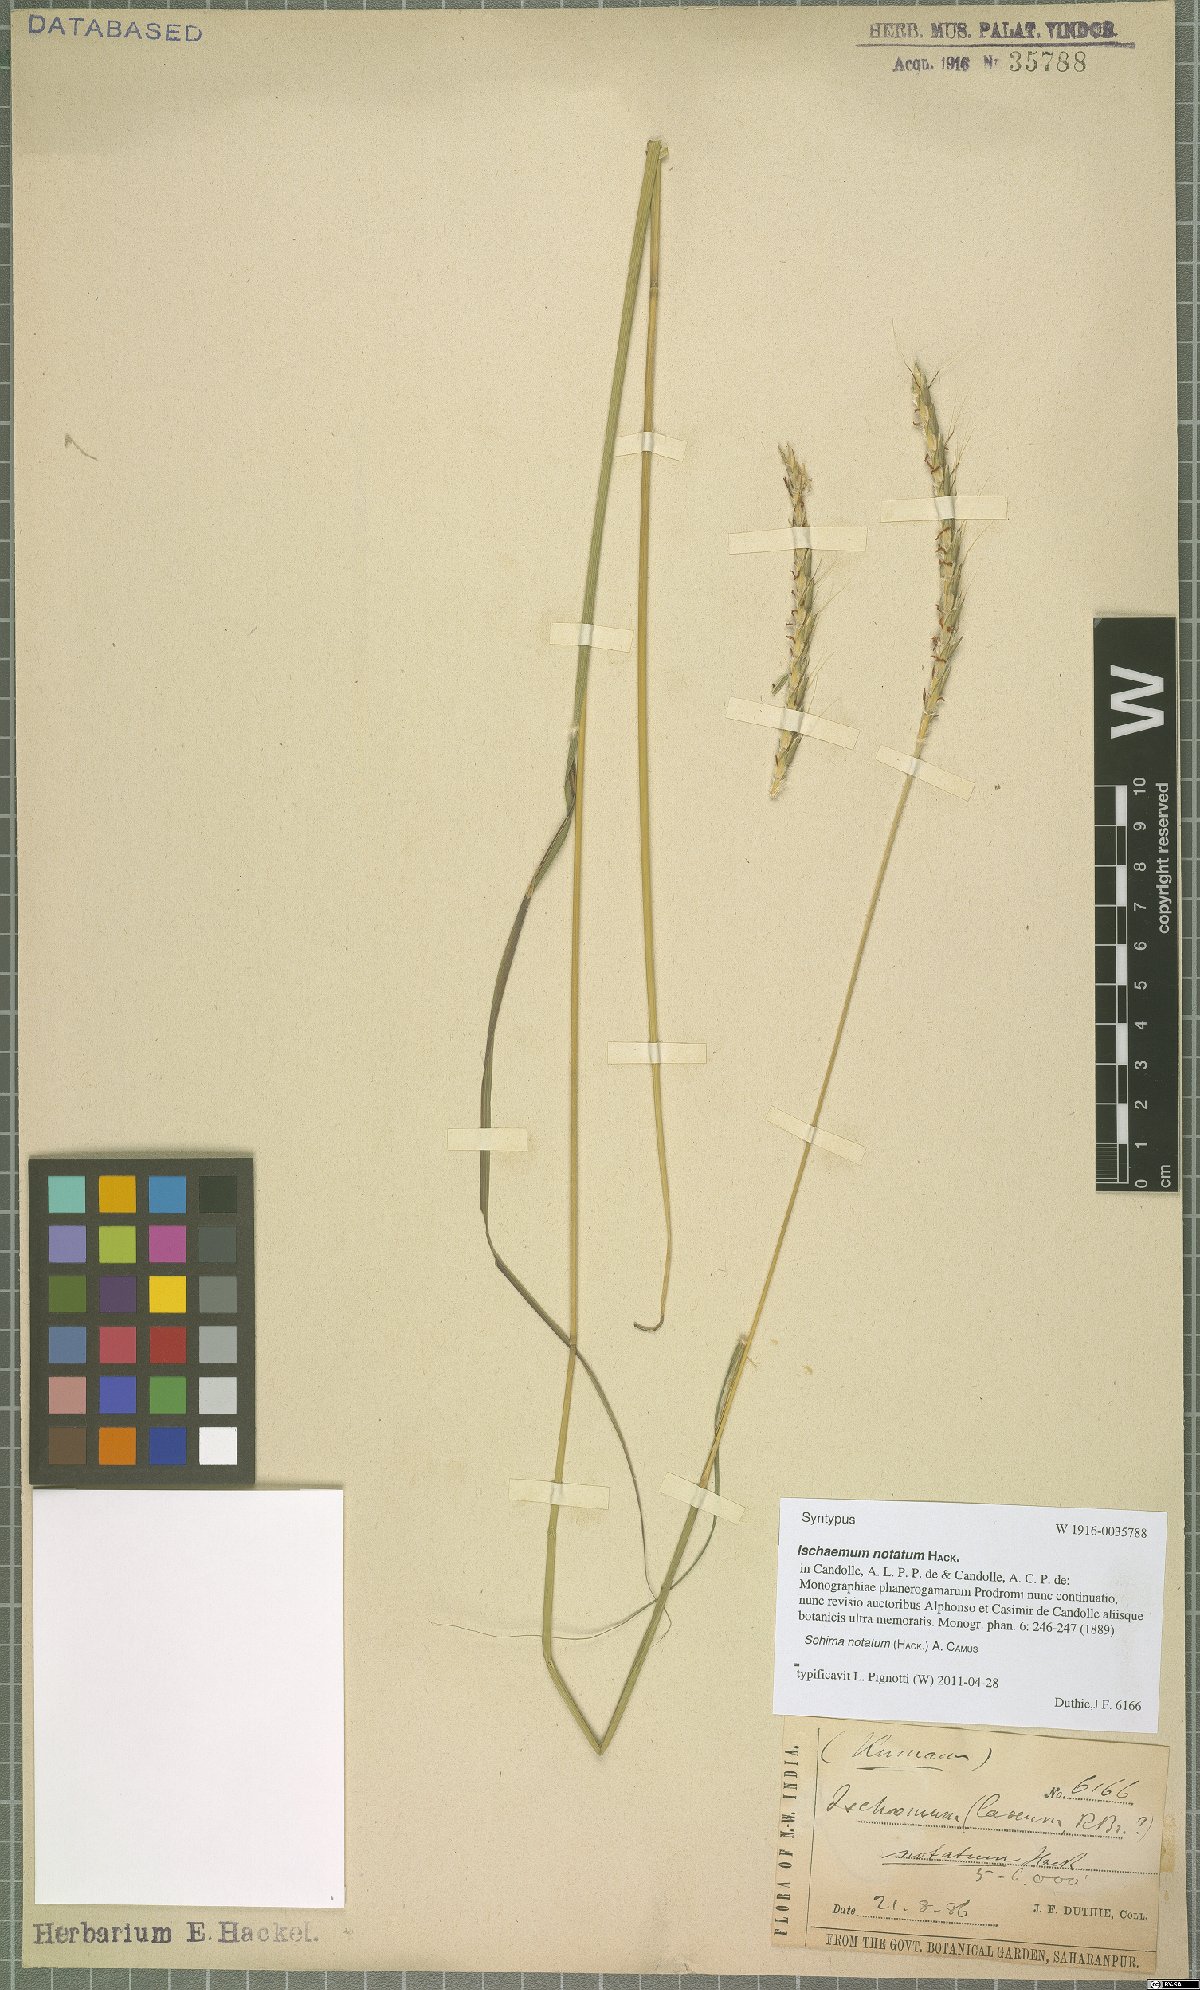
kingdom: Plantae
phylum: Tracheophyta
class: Liliopsida
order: Poales
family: Poaceae
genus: Sehima
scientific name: Sehima notata
